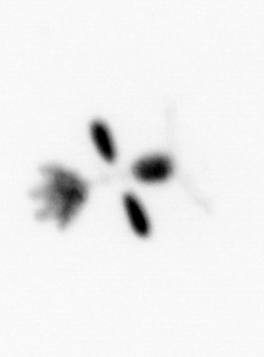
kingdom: Animalia
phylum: Arthropoda
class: Copepoda
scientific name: Copepoda
